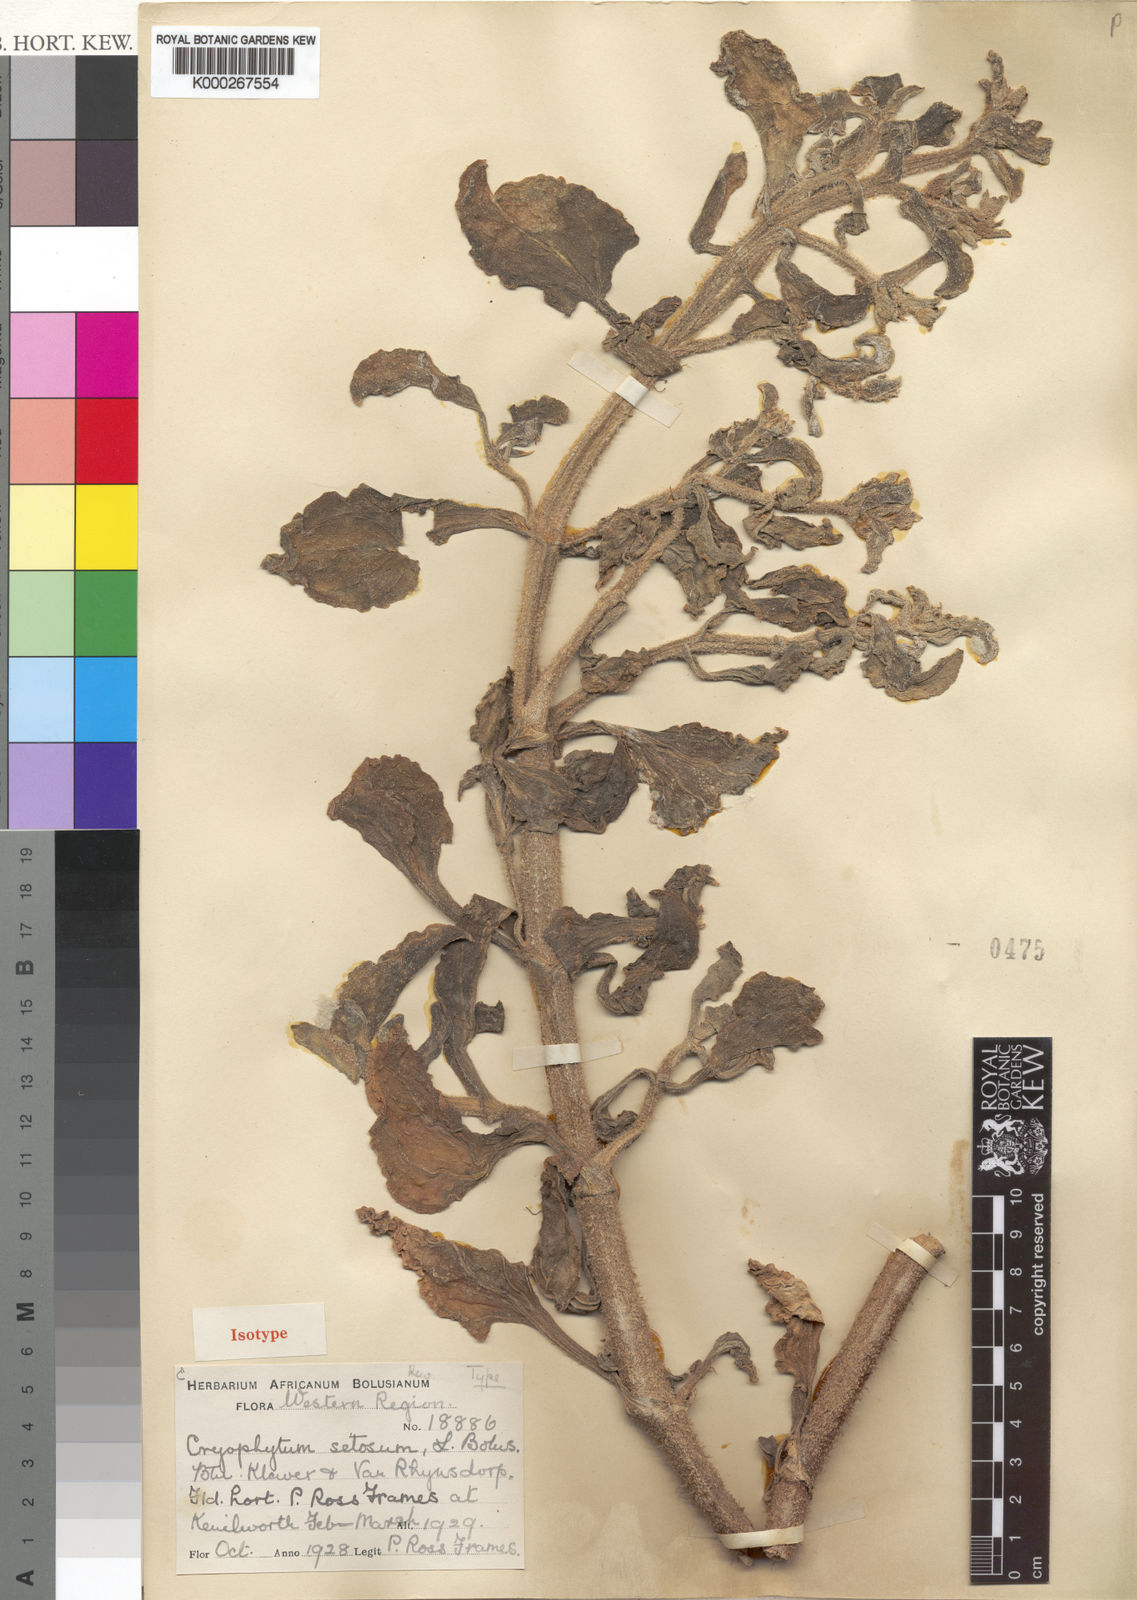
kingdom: Plantae
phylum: Tracheophyta
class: Magnoliopsida
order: Caryophyllales
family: Aizoaceae
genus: Mesembryanthemum
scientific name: Mesembryanthemum guerichianum
